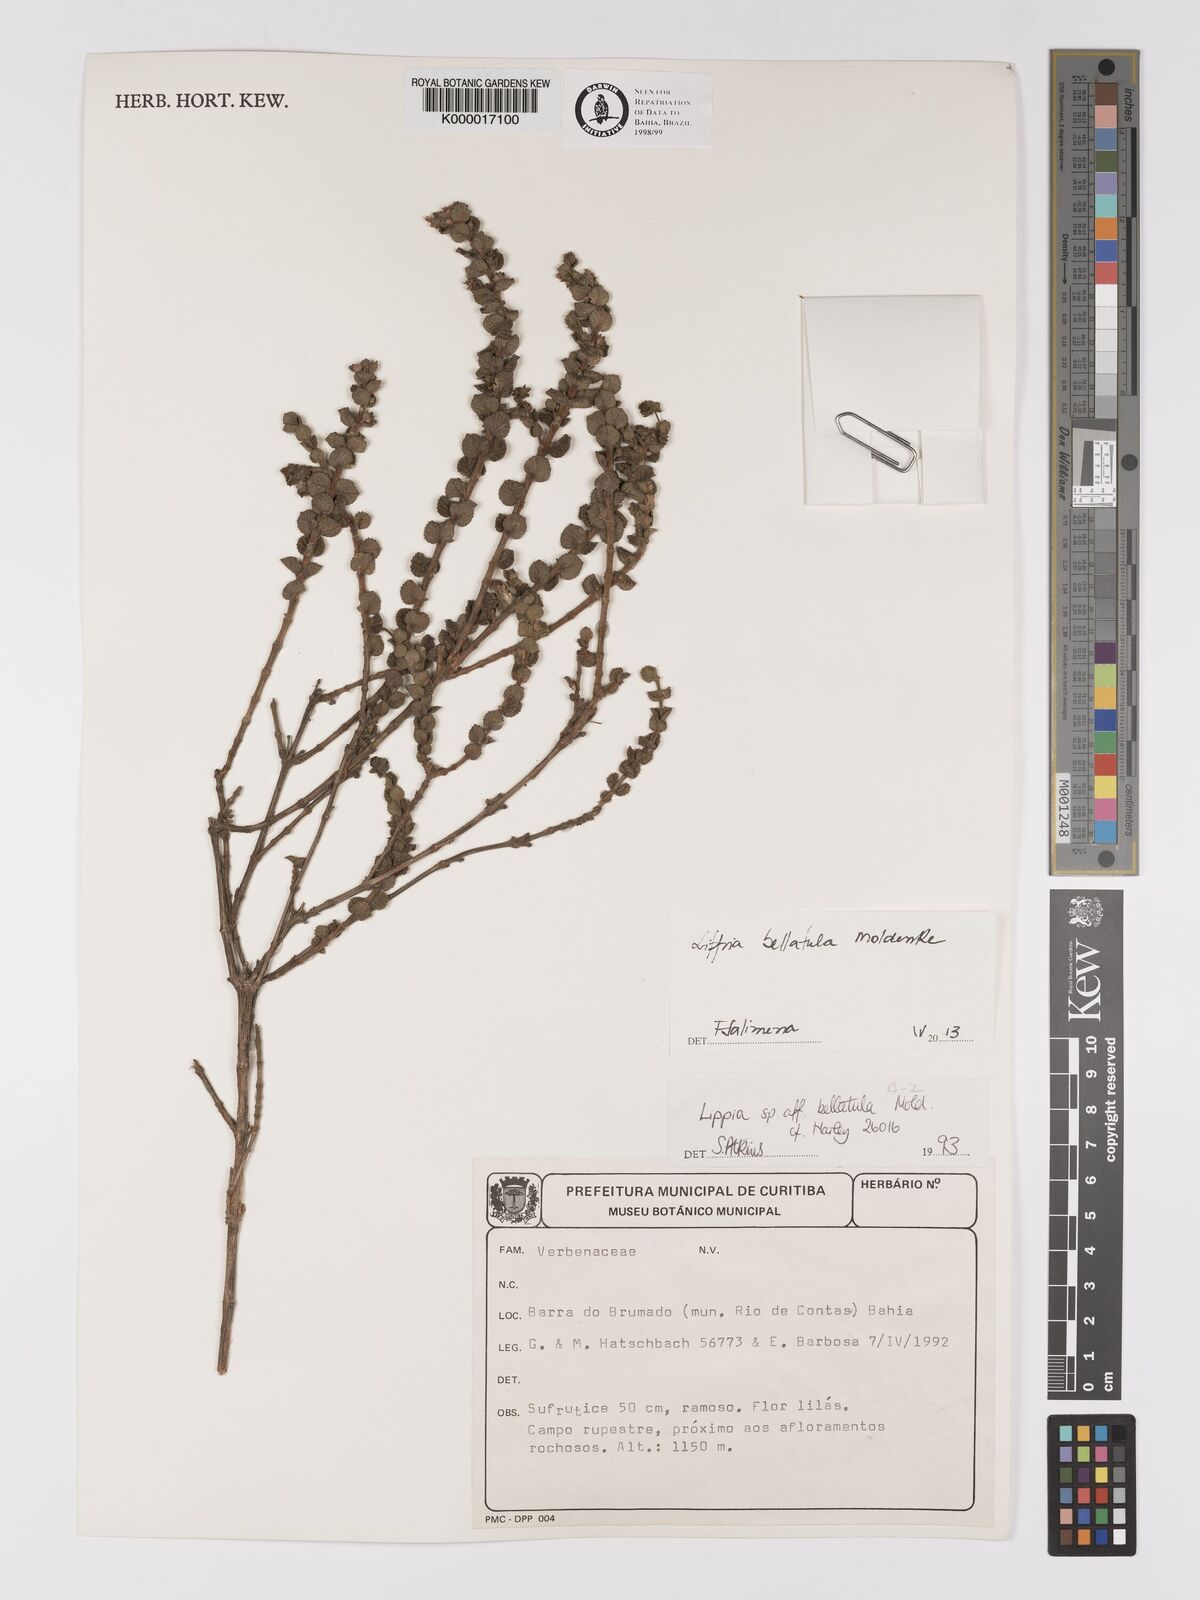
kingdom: Plantae
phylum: Tracheophyta
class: Magnoliopsida
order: Lamiales
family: Verbenaceae
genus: Lippia
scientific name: Lippia bellatula
